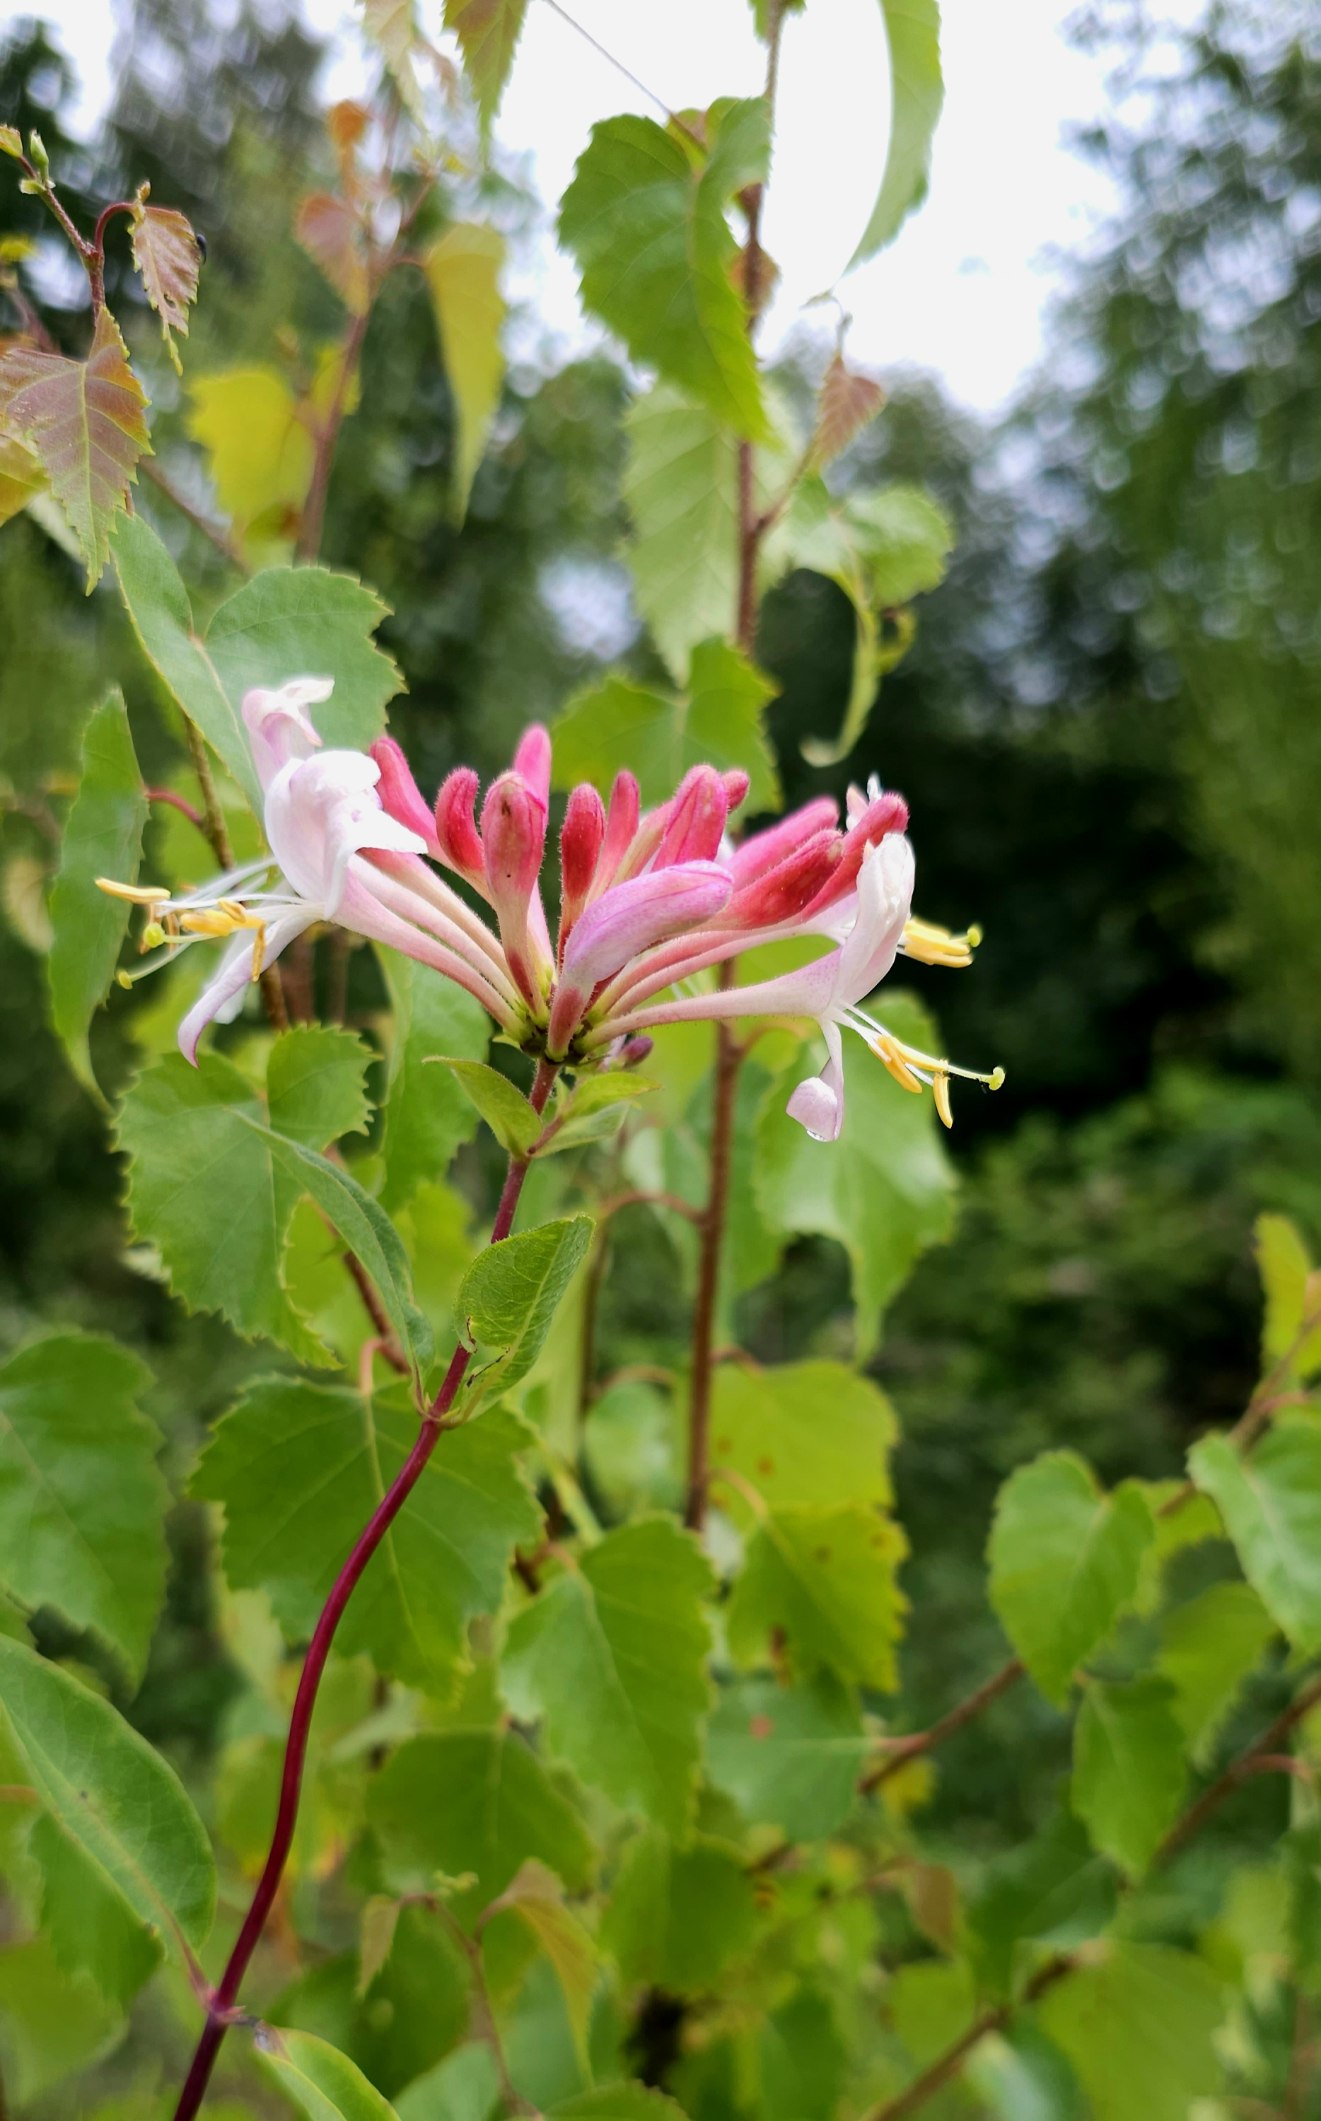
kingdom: Plantae
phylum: Tracheophyta
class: Magnoliopsida
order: Dipsacales
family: Caprifoliaceae
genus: Lonicera
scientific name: Lonicera periclymenum
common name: Almindelig gedeblad
